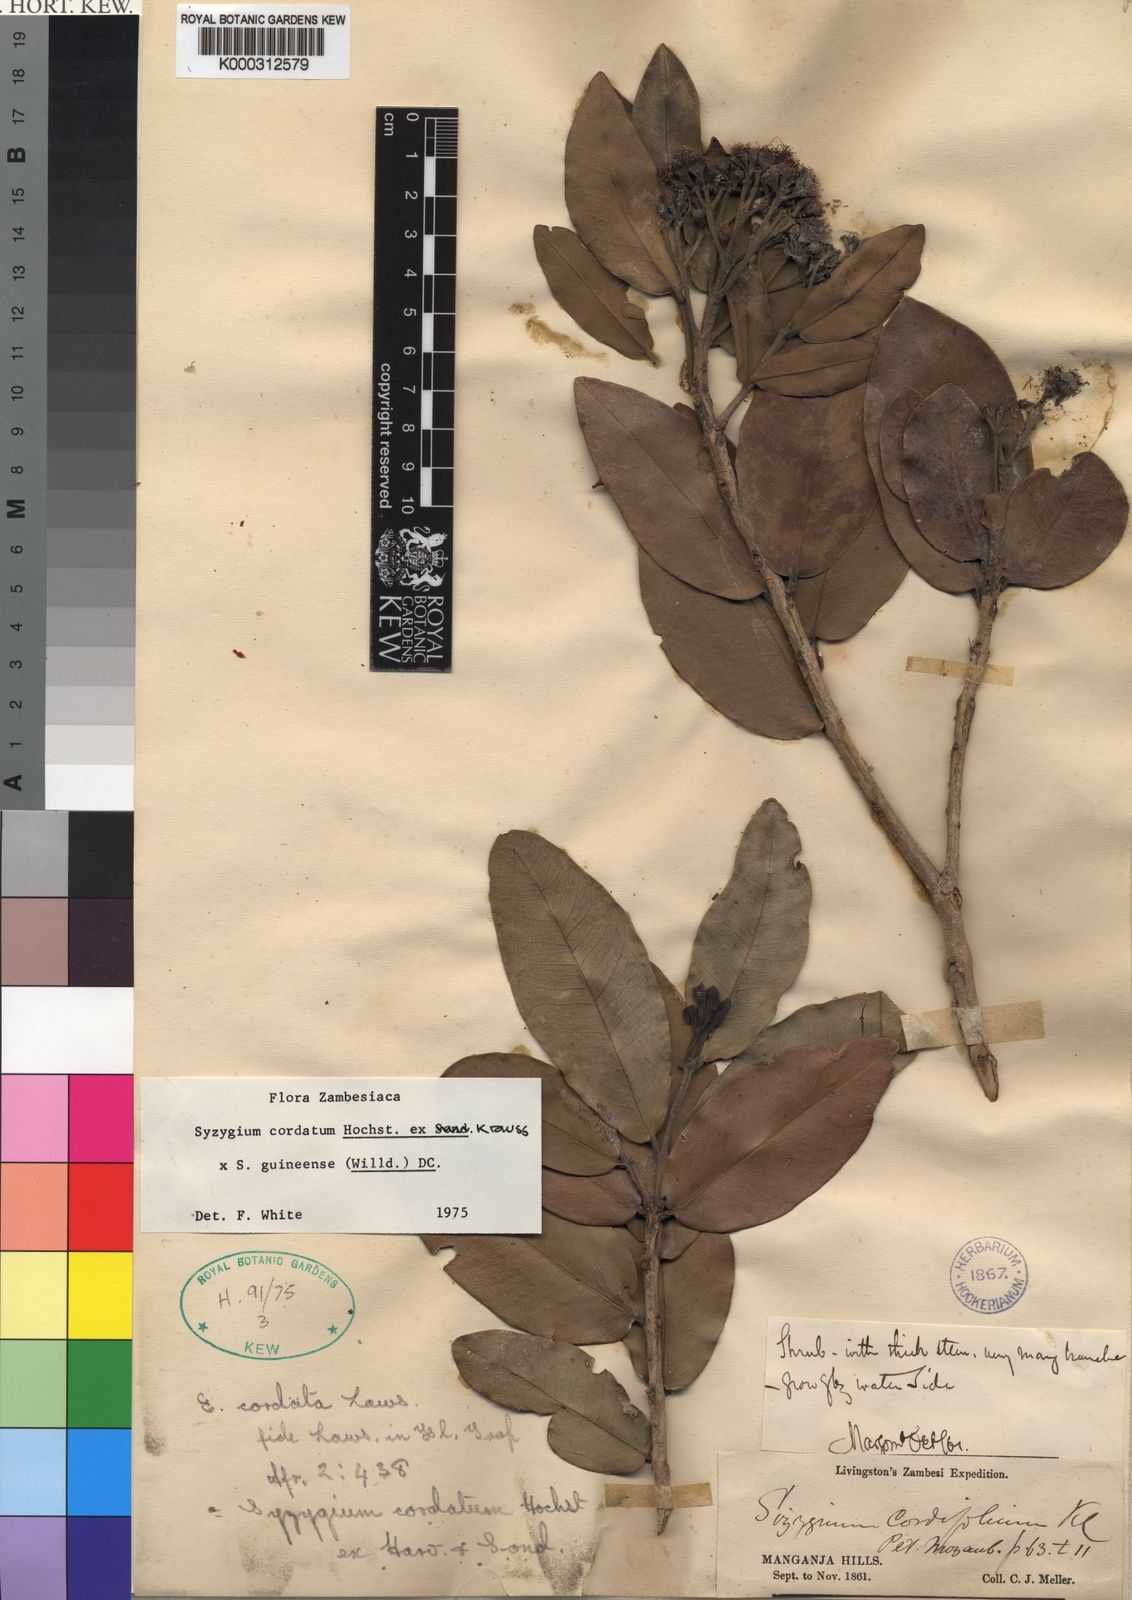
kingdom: Plantae
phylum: Tracheophyta
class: Magnoliopsida
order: Myrtales
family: Myrtaceae
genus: Syzygium
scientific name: Syzygium cordatum
